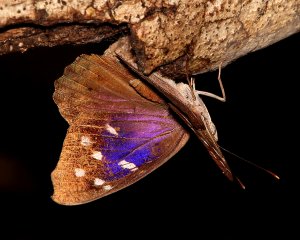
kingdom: Animalia
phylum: Arthropoda
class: Insecta
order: Lepidoptera
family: Nymphalidae
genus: Eunica
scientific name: Eunica tatila
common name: Florida Purplewing
